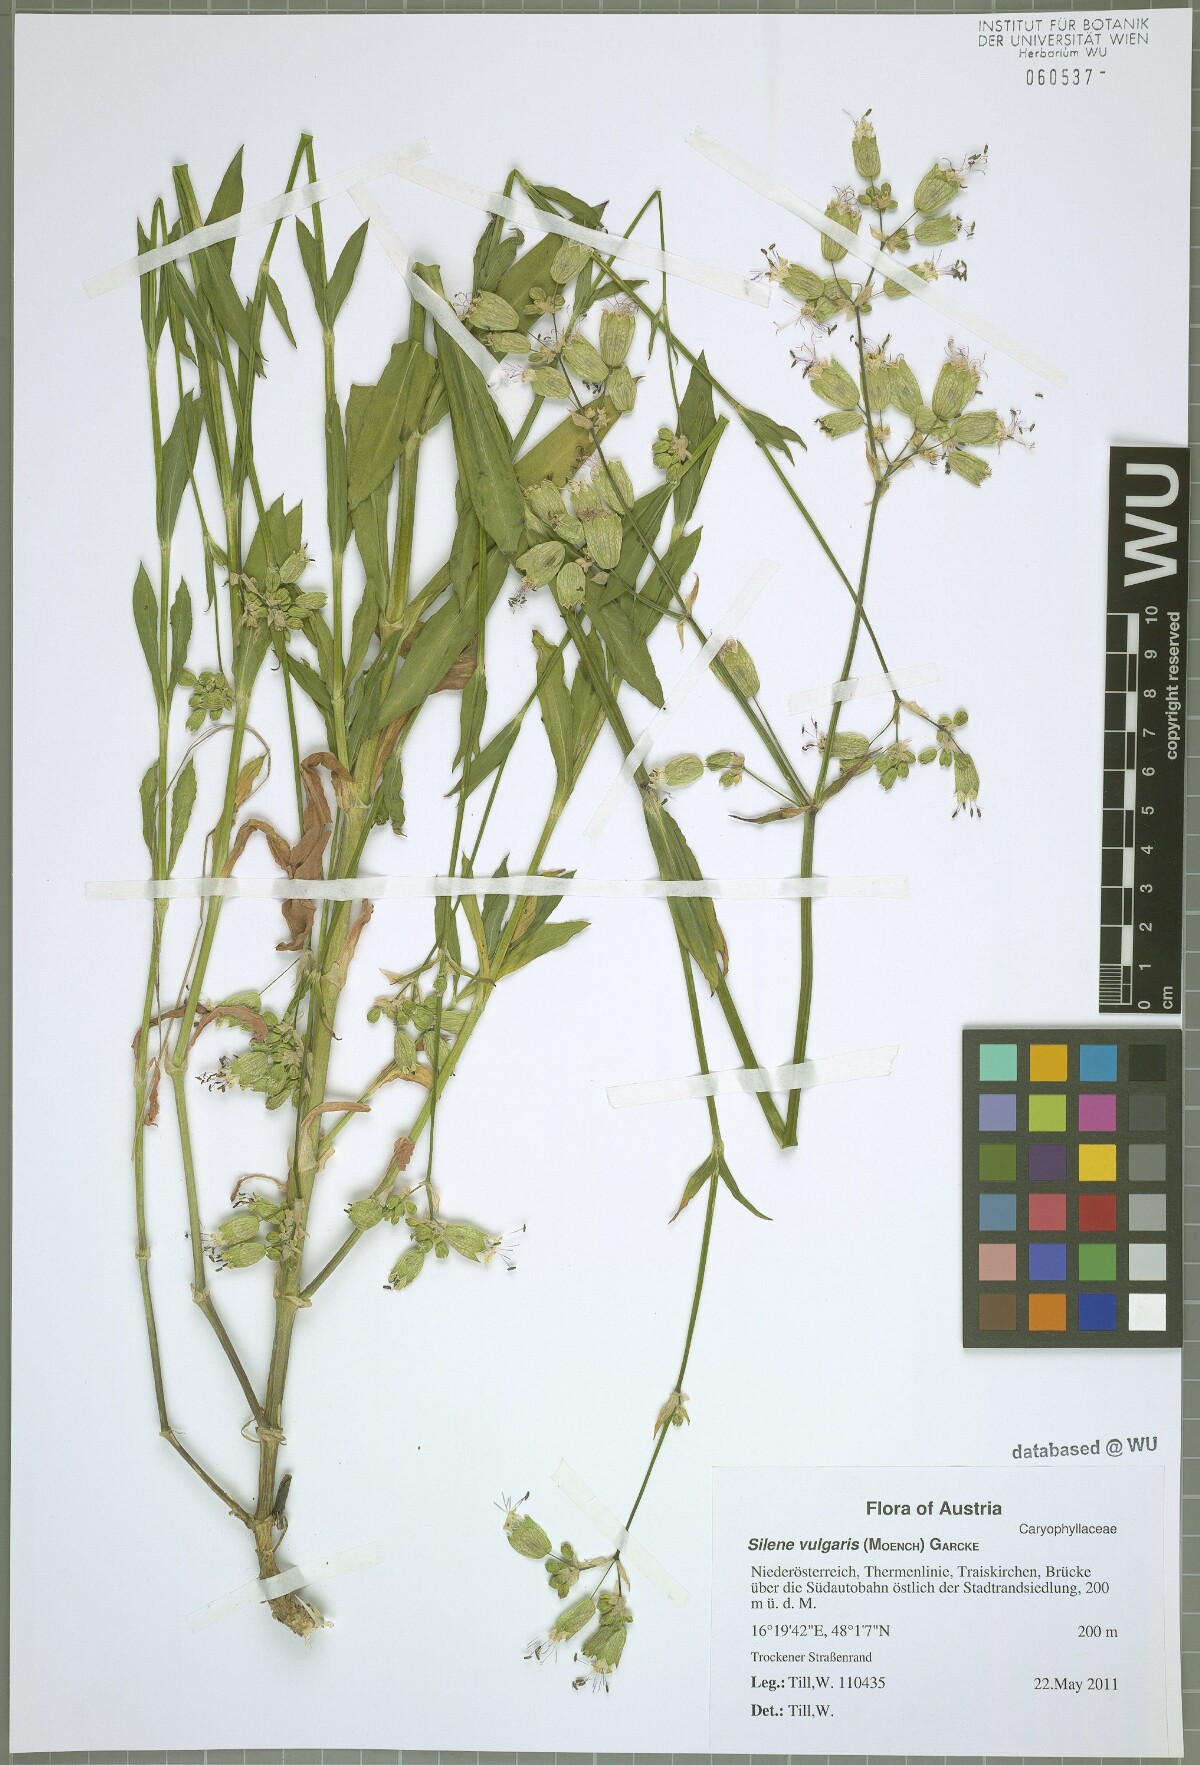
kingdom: Plantae
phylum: Tracheophyta
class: Magnoliopsida
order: Caryophyllales
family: Caryophyllaceae
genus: Silene
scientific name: Silene vulgaris
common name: Bladder campion
